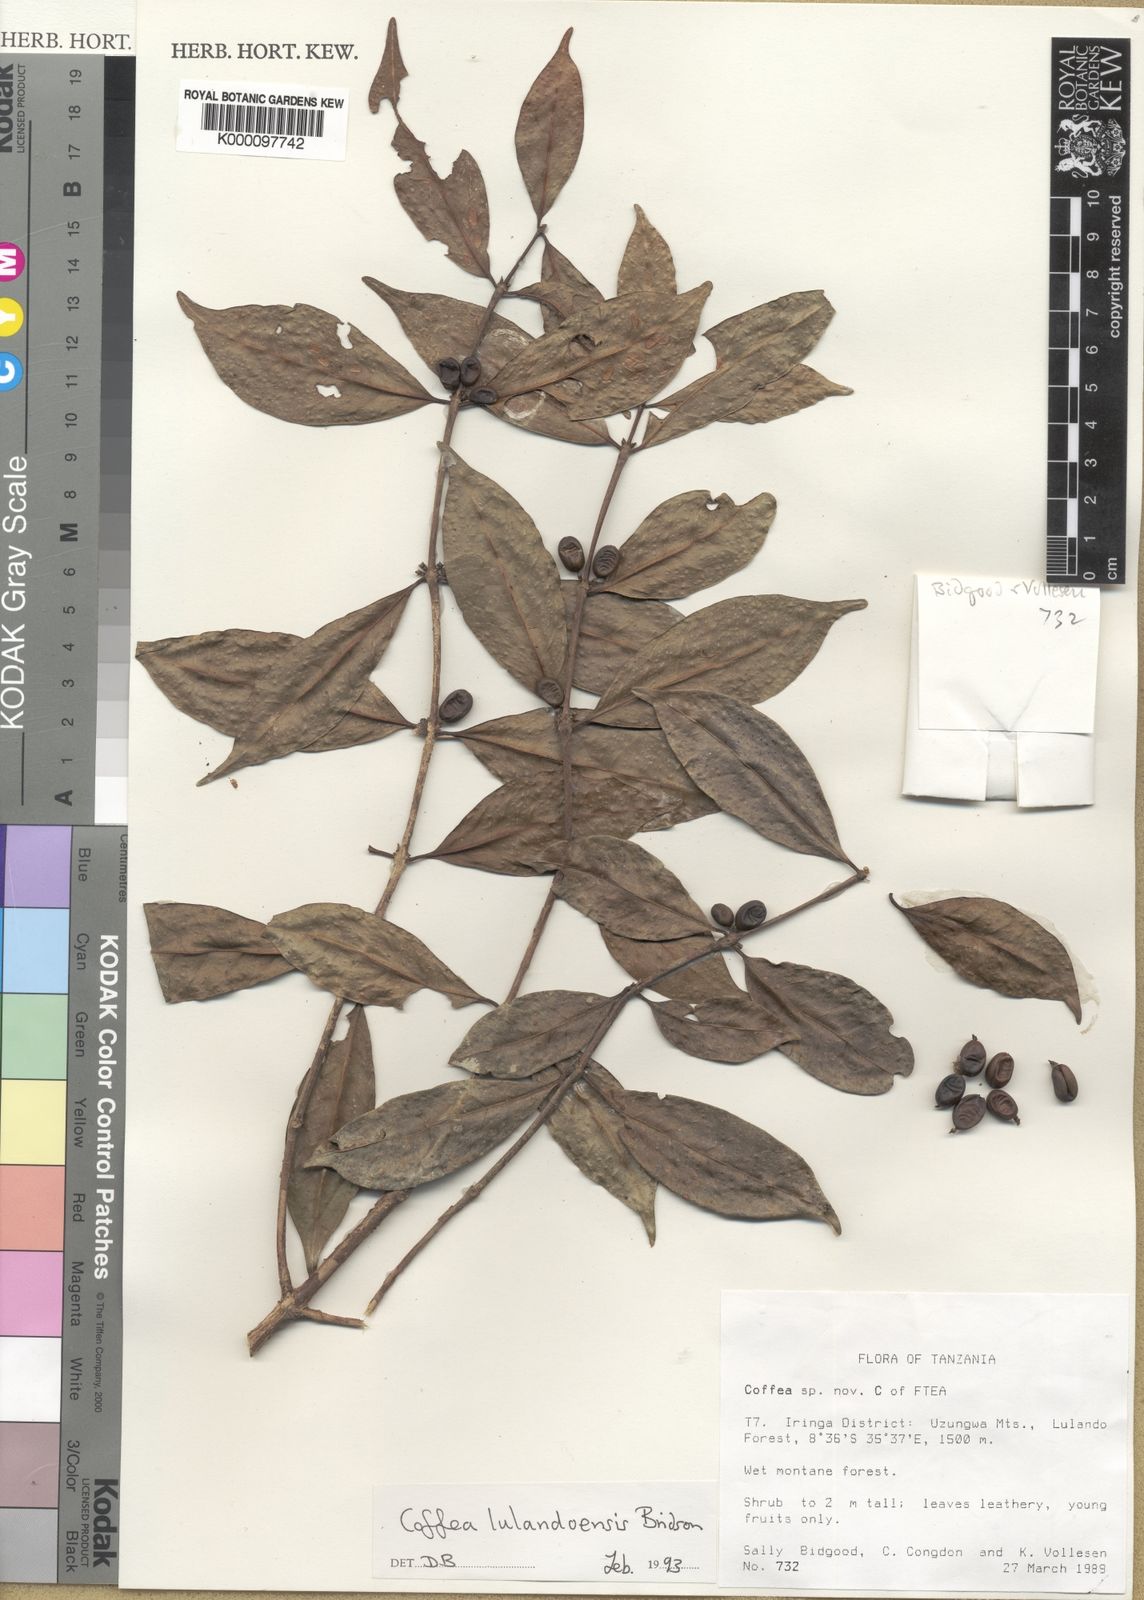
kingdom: Plantae
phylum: Tracheophyta
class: Magnoliopsida
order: Gentianales
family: Rubiaceae
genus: Coffea
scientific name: Coffea lulandoensis
